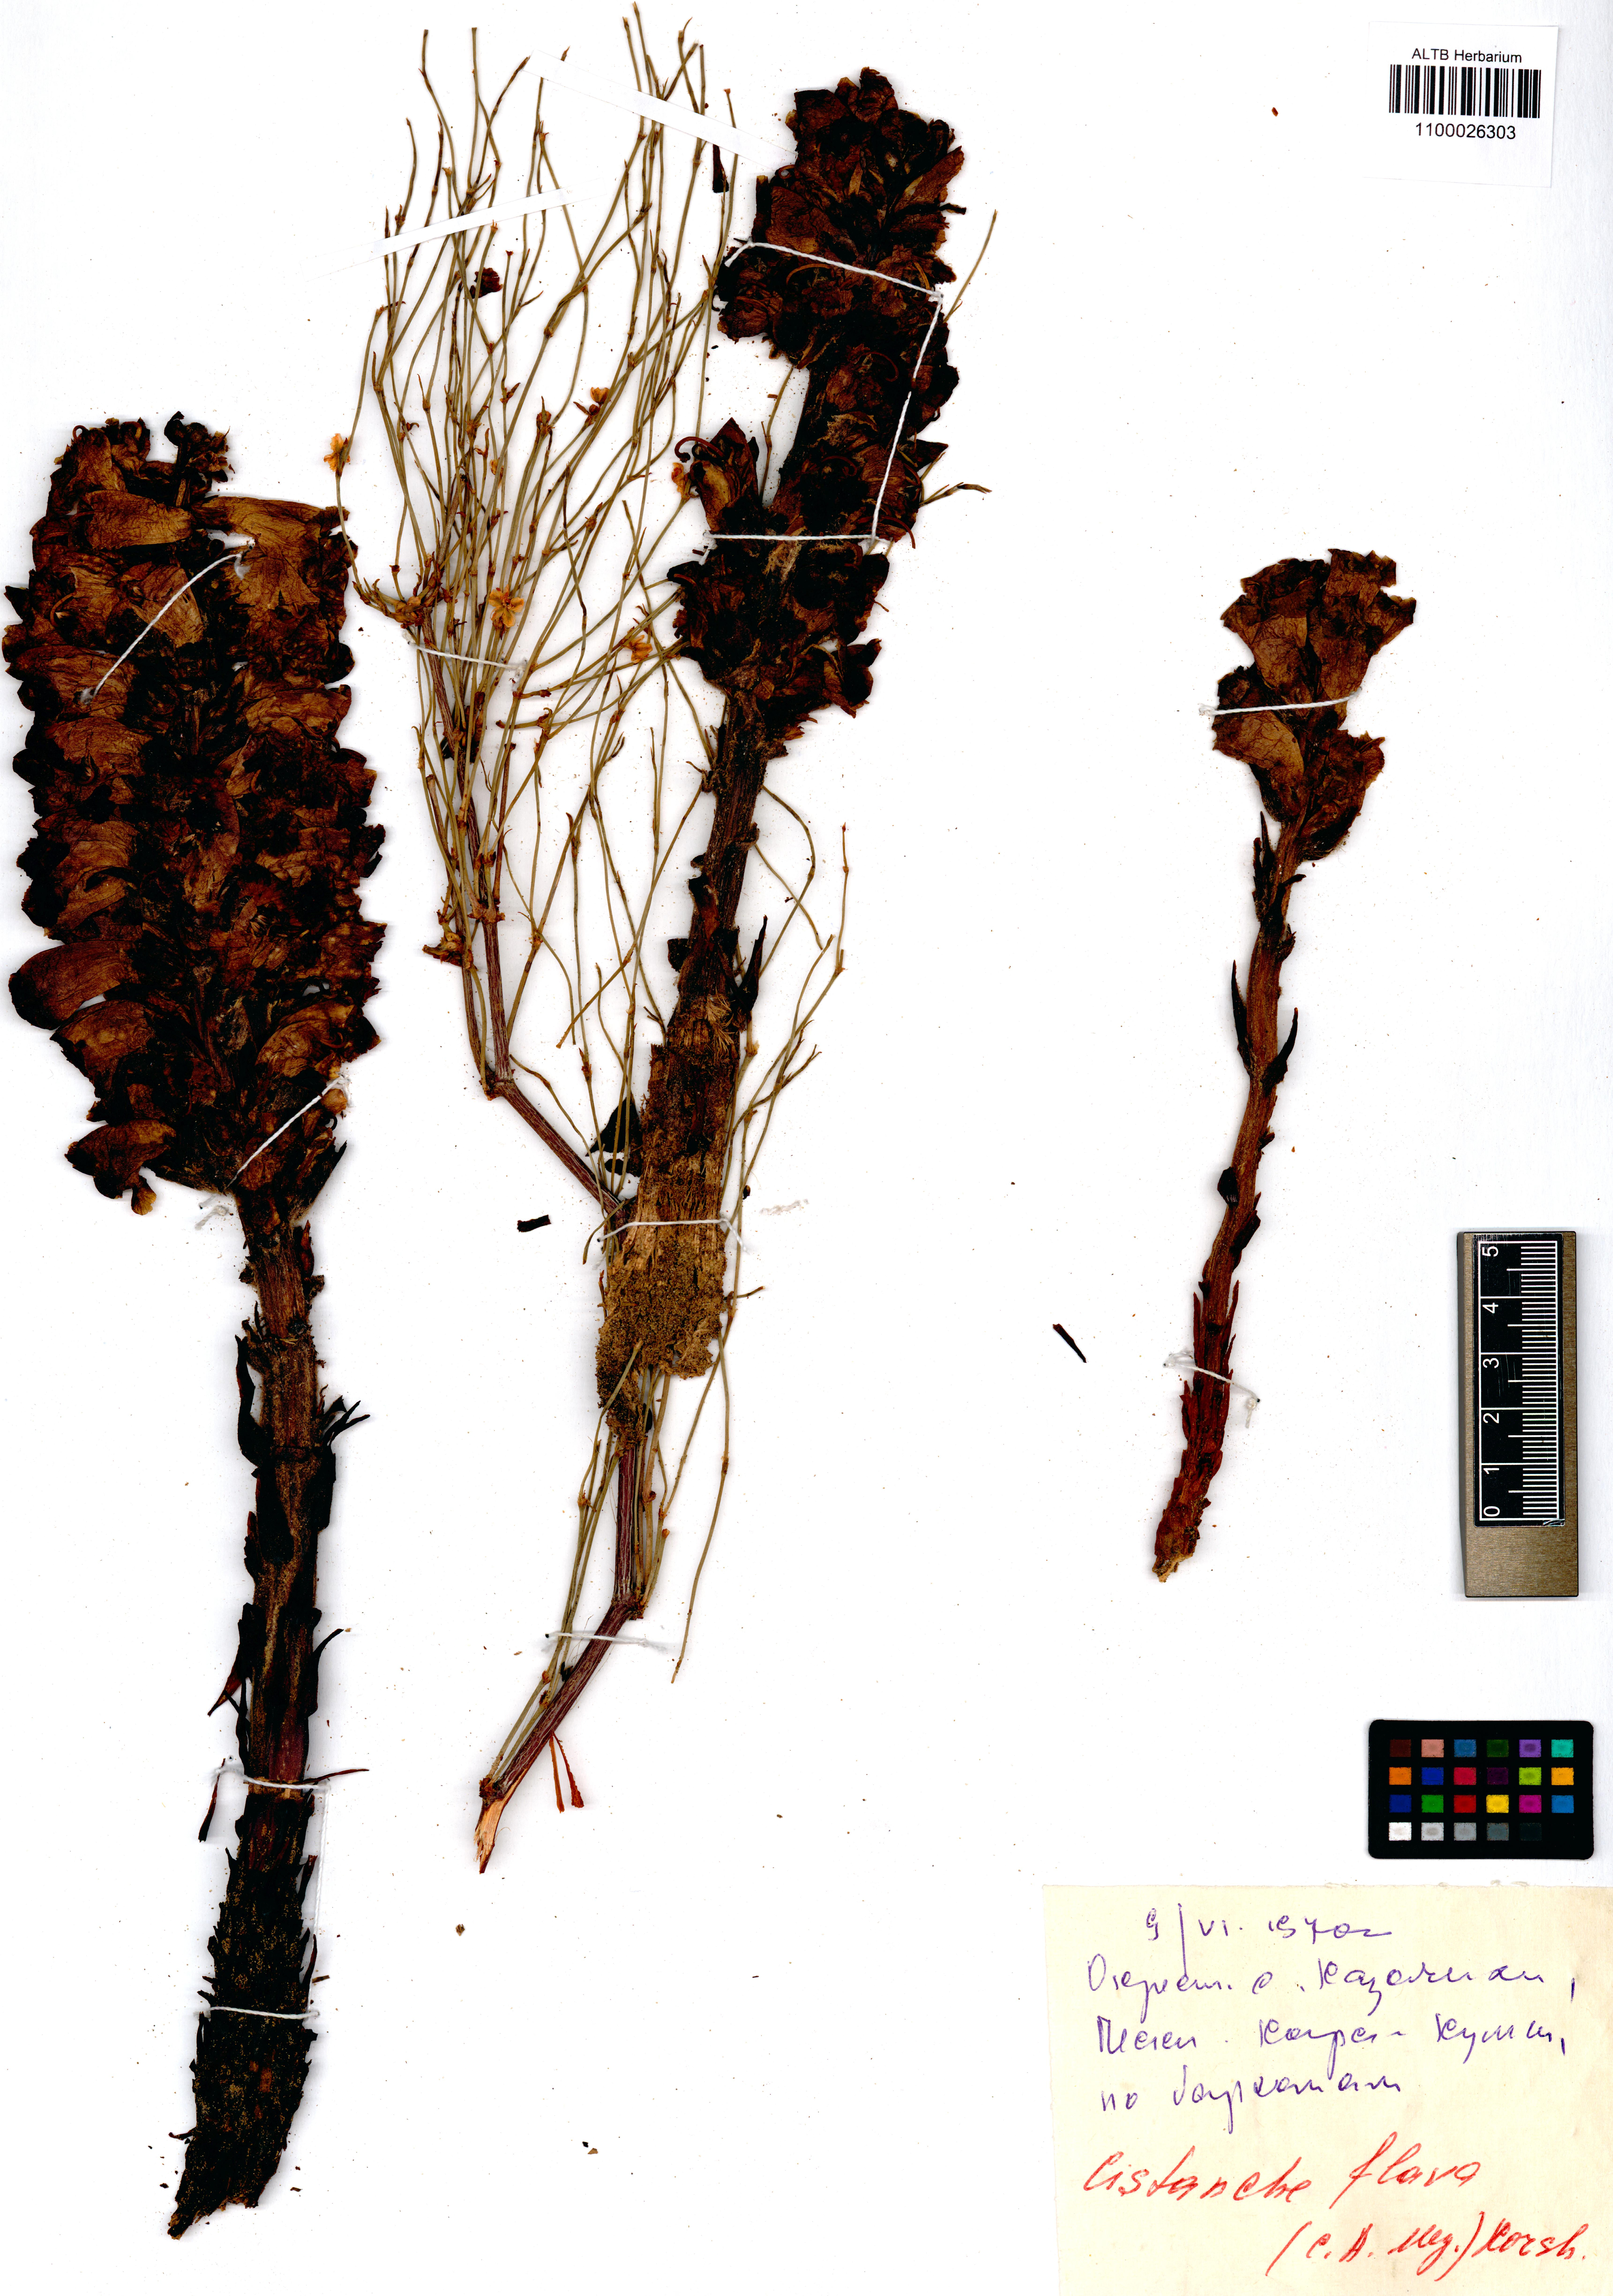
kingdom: Plantae
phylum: Tracheophyta
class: Magnoliopsida
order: Lamiales
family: Orobanchaceae
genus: Cistanche
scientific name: Cistanche flava
